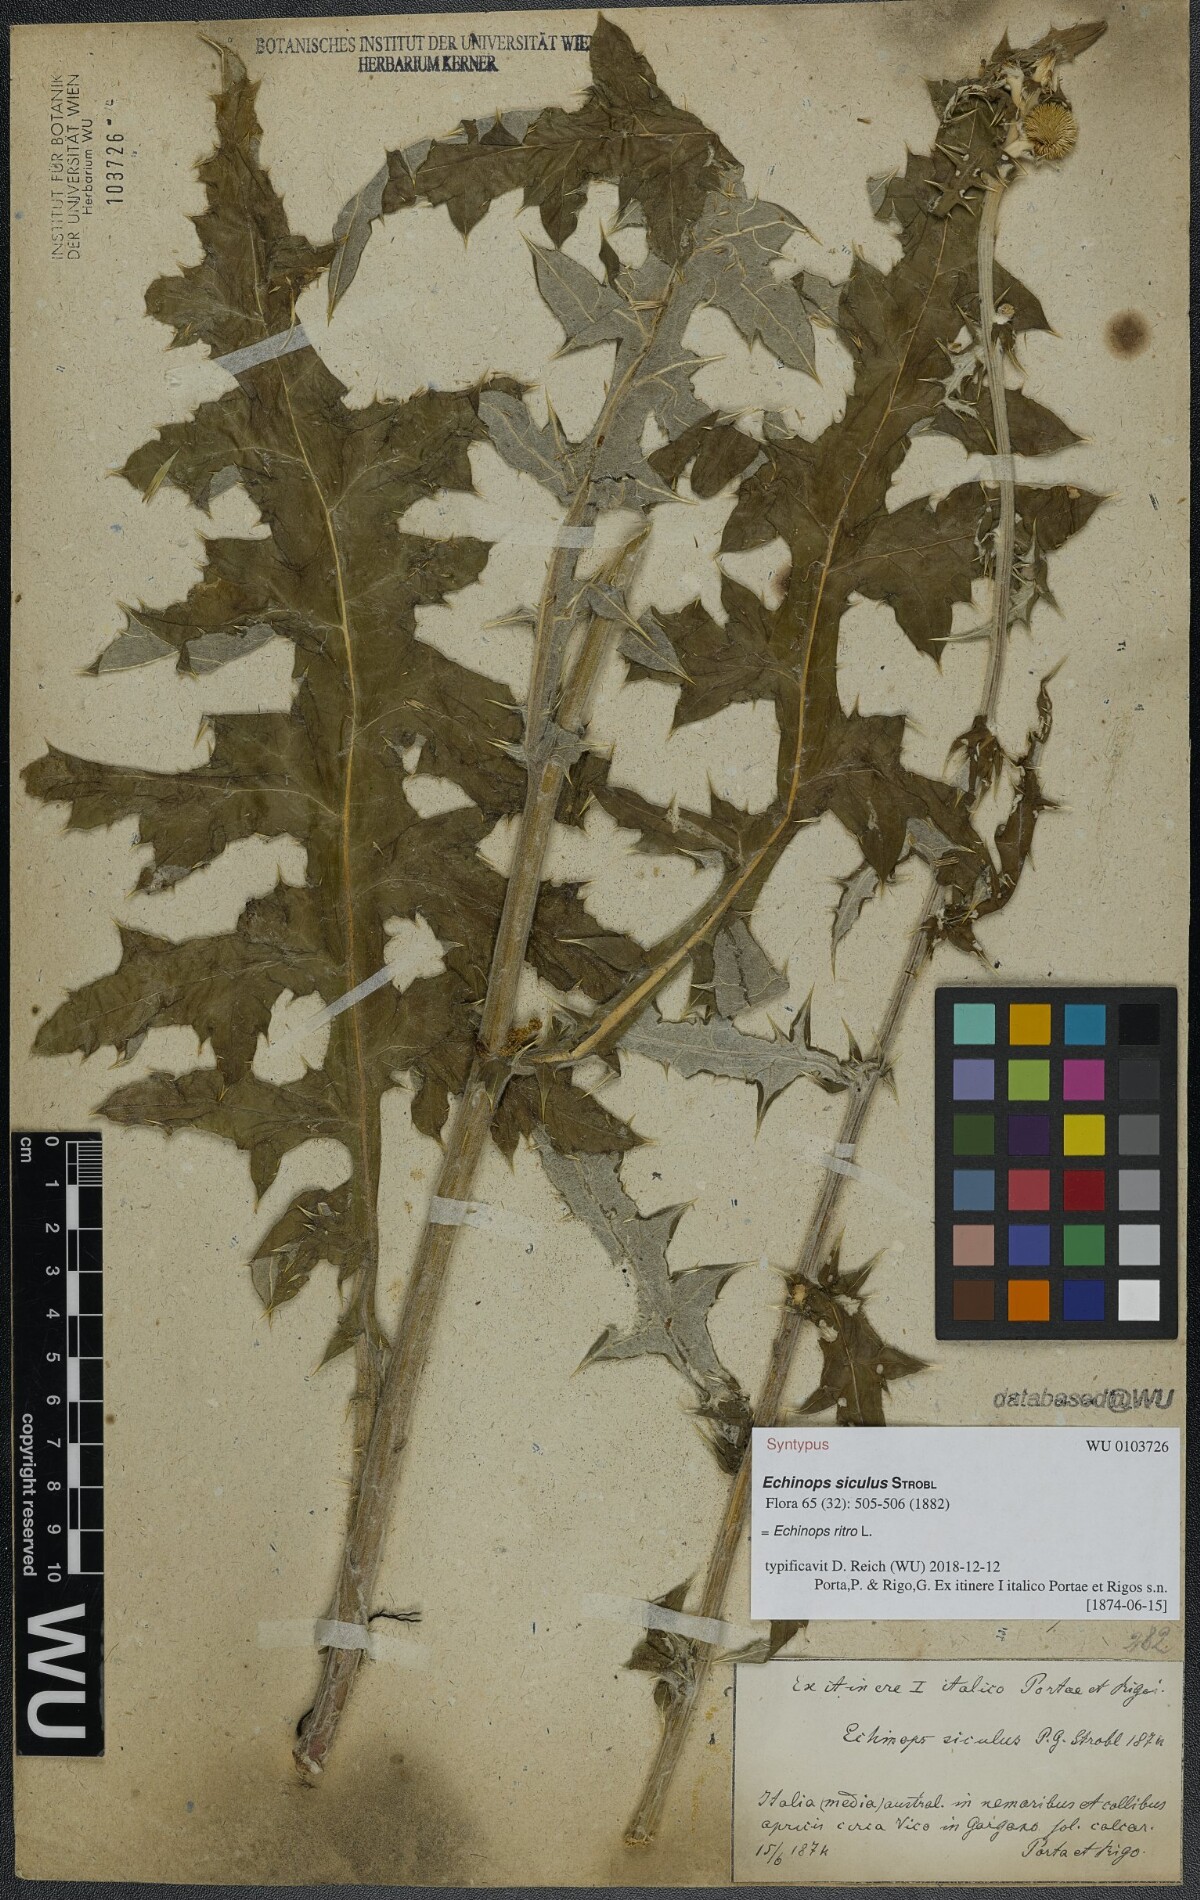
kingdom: Plantae
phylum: Tracheophyta
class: Magnoliopsida
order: Asterales
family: Asteraceae
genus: Echinops
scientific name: Echinops ritro
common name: Globe thistle
